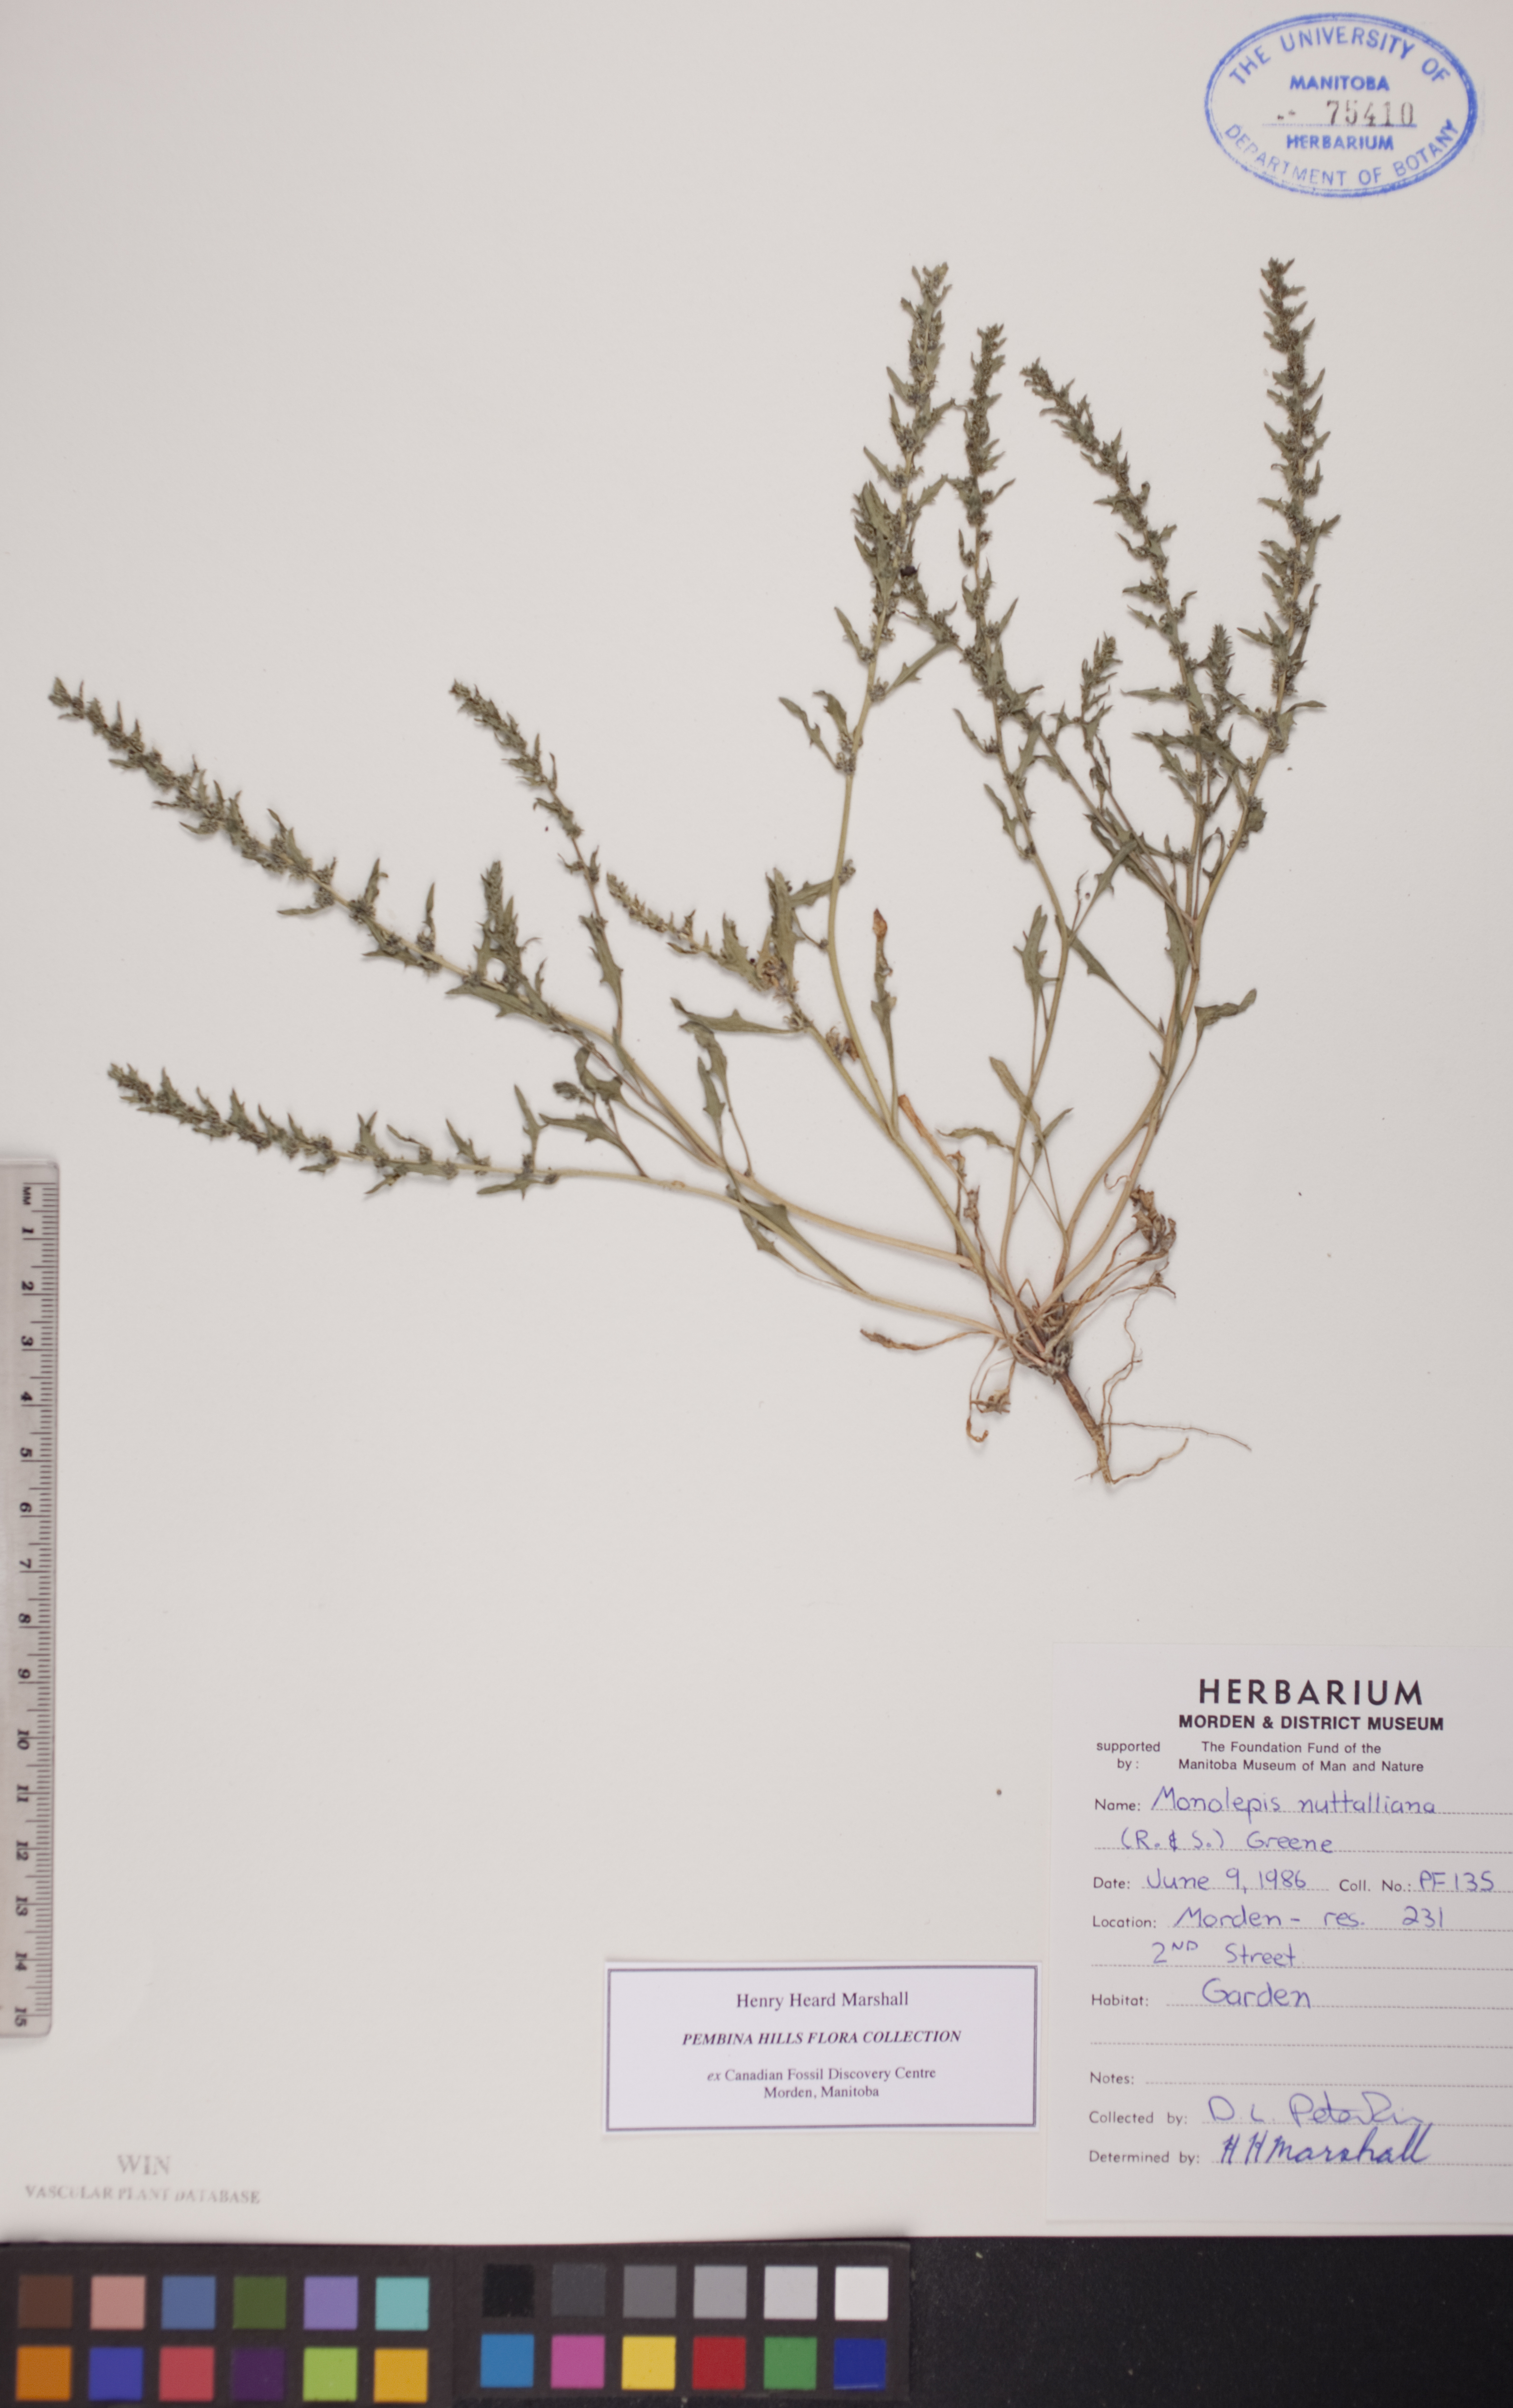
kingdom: Plantae
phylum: Tracheophyta
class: Magnoliopsida
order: Caryophyllales
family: Amaranthaceae
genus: Blitum
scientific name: Blitum nuttallianum
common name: Poverty-weed
